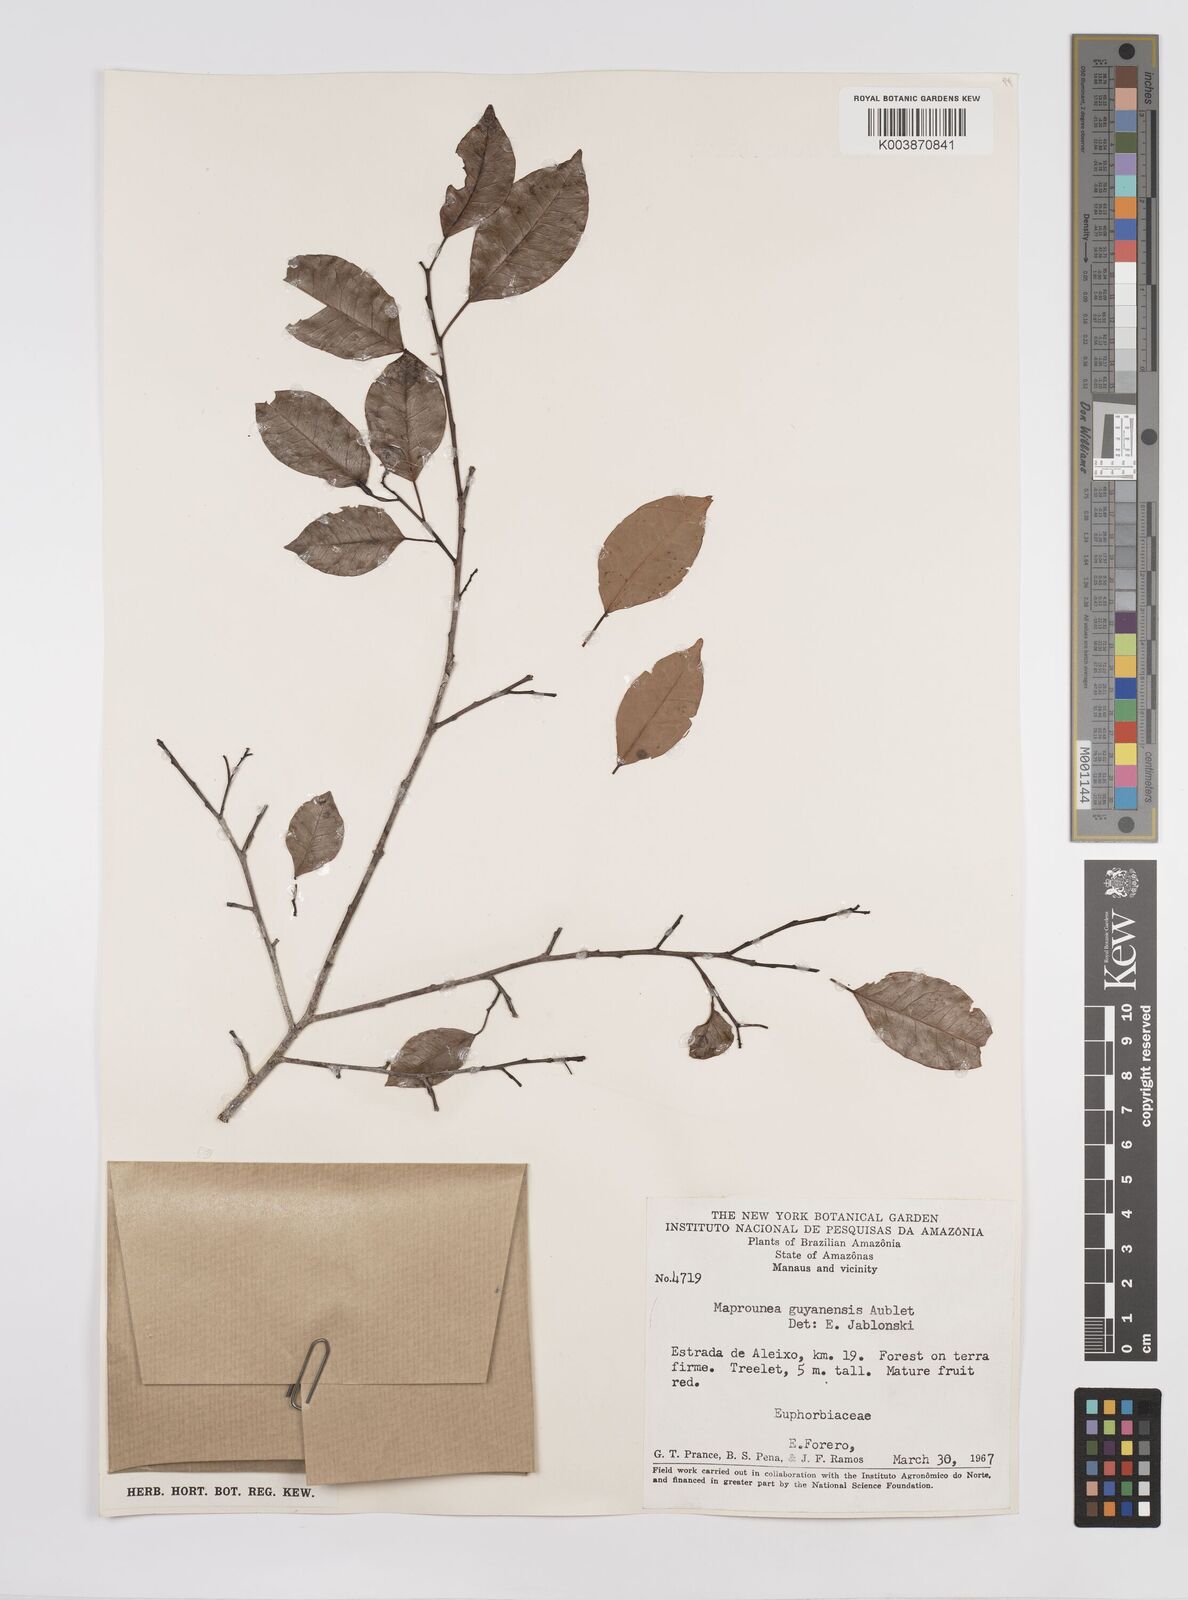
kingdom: Plantae
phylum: Tracheophyta
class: Magnoliopsida
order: Malpighiales
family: Euphorbiaceae
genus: Maprounea
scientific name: Maprounea guianensis
